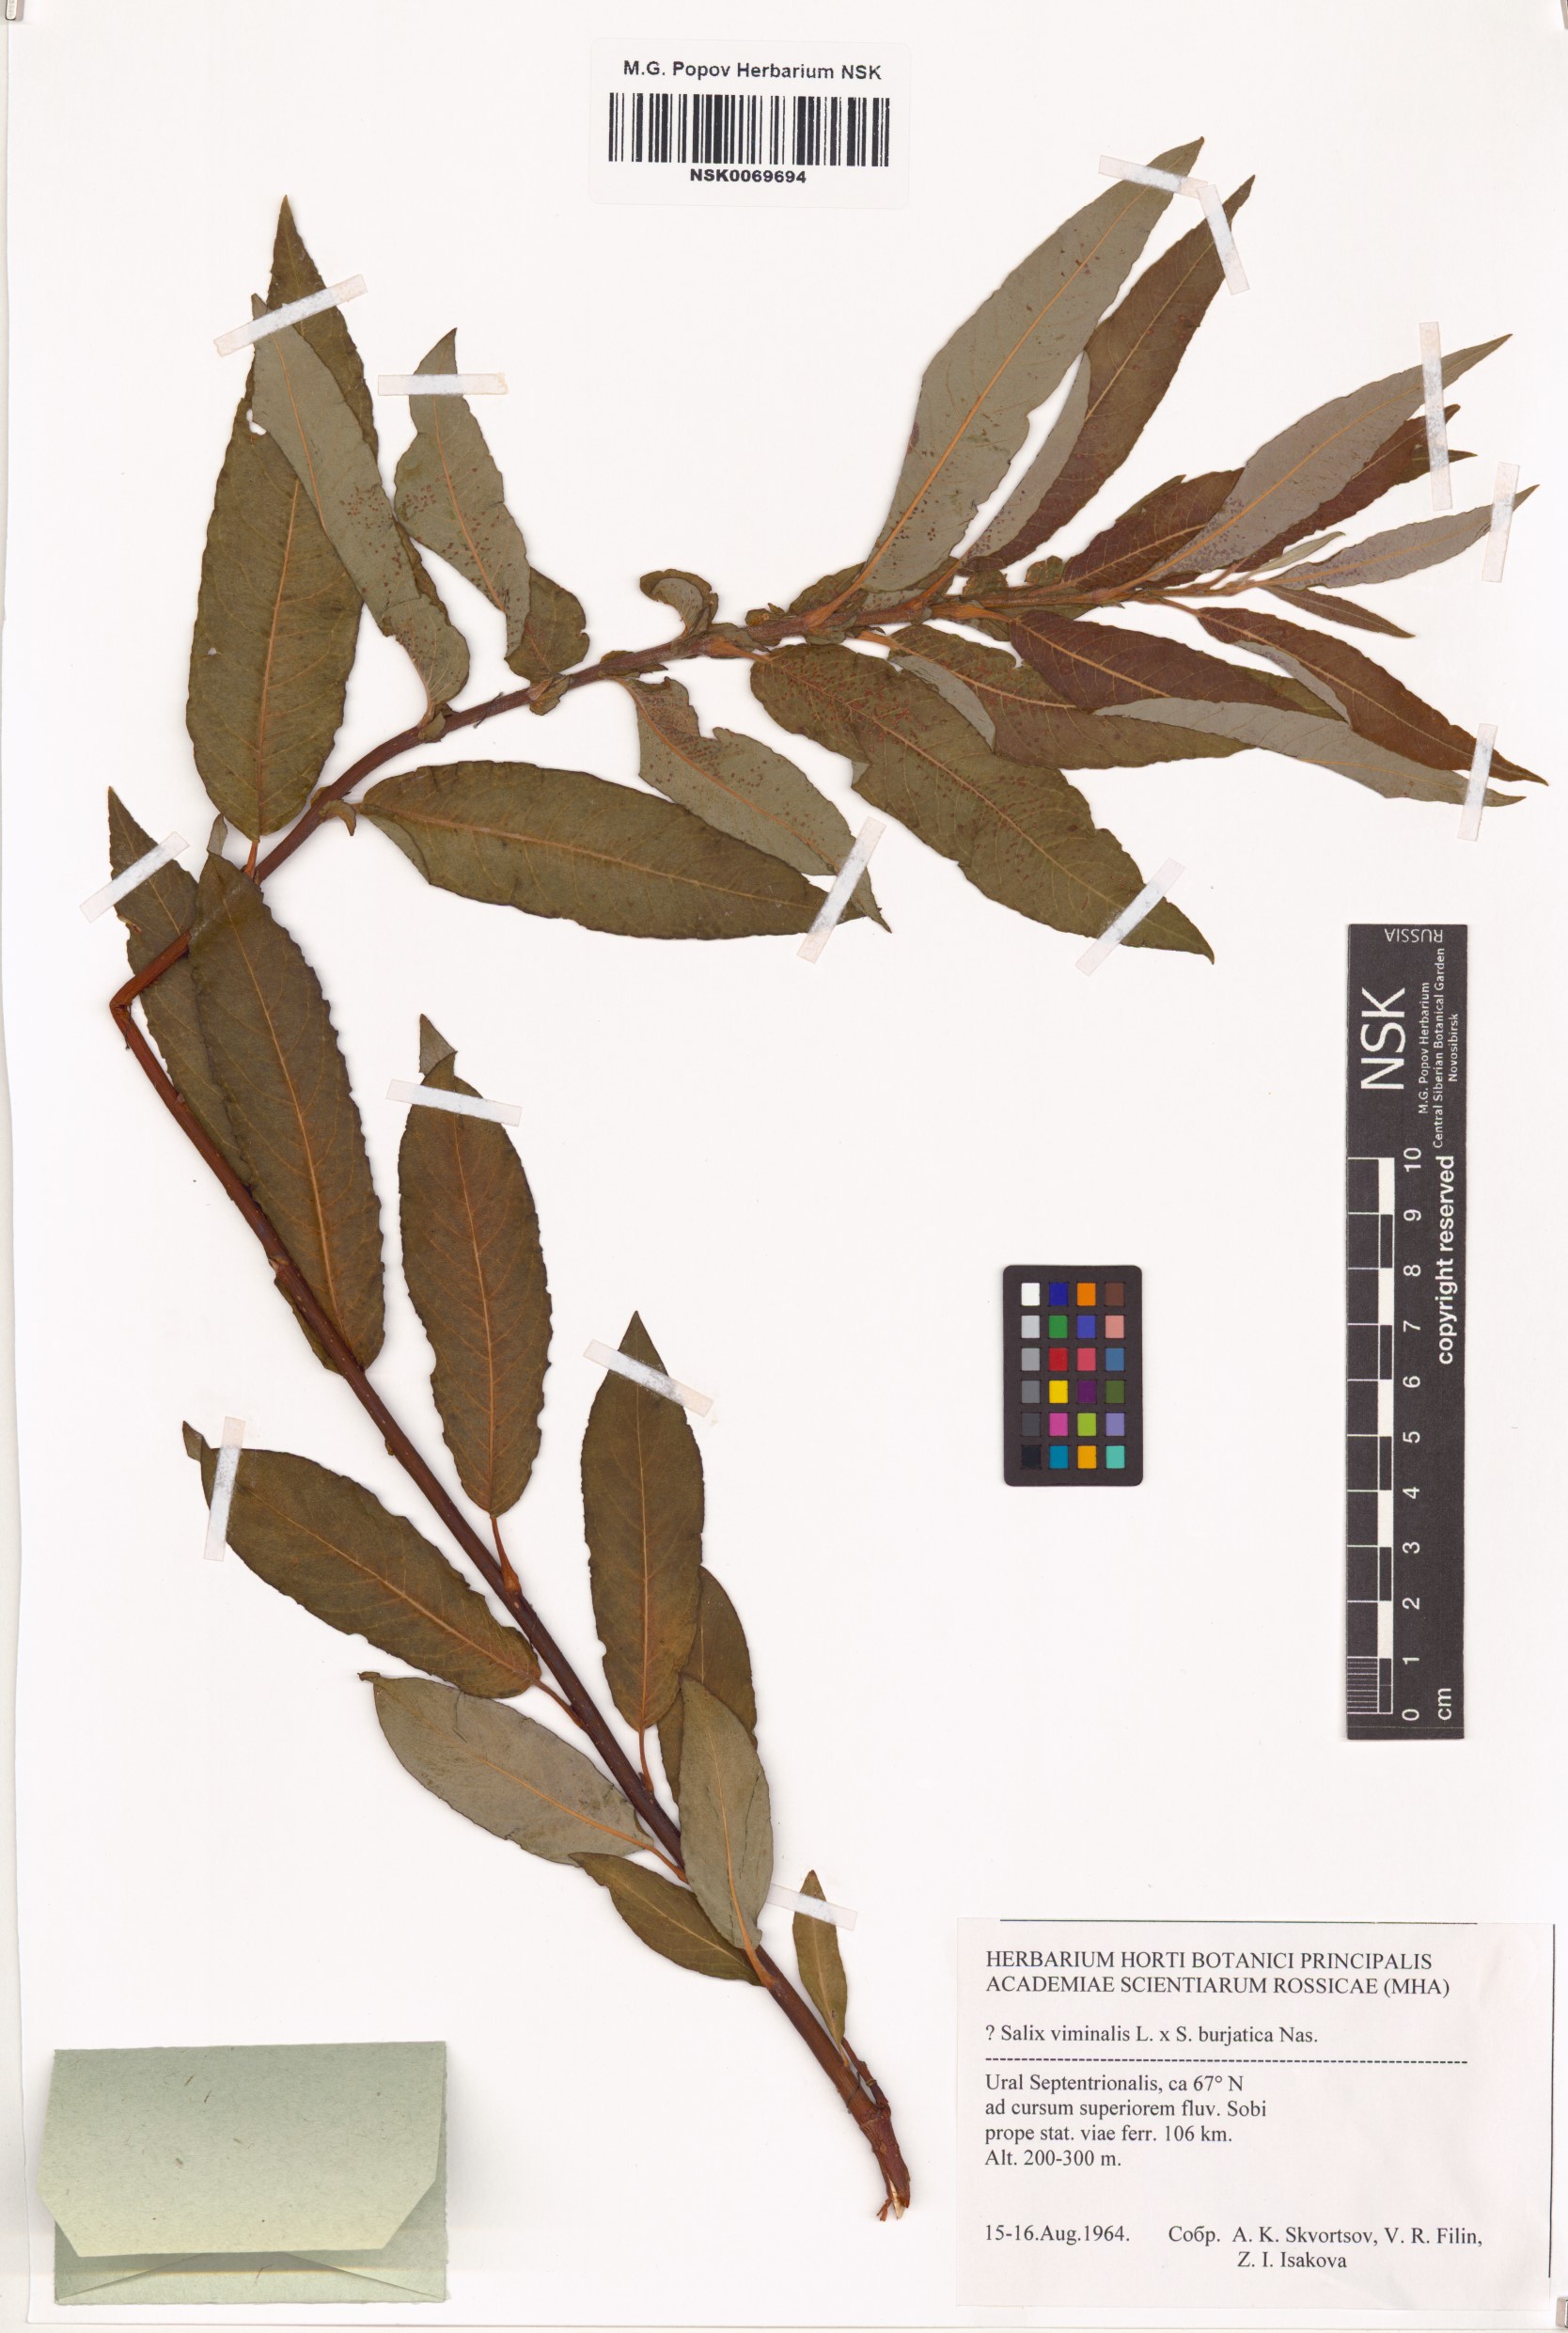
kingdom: Plantae
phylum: Tracheophyta
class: Magnoliopsida
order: Malpighiales
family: Salicaceae
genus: Salix
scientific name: Salix viminalis
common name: Osier
